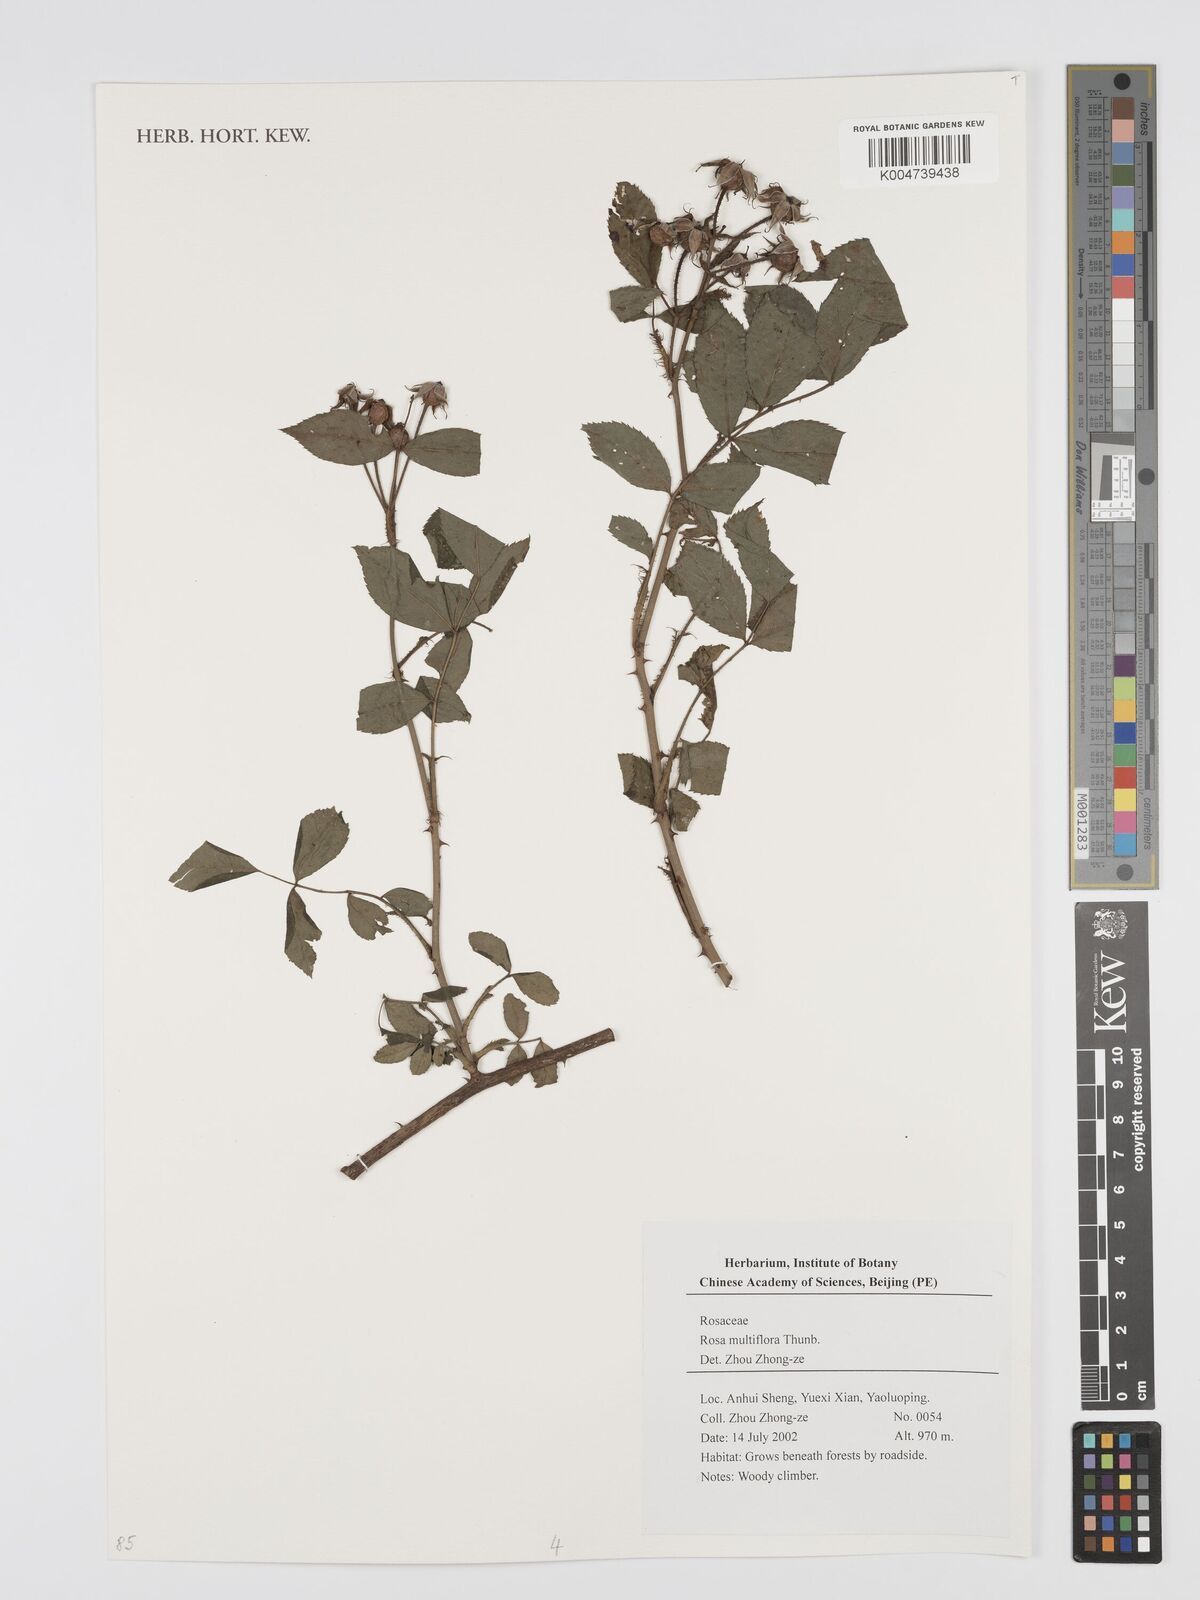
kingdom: Plantae
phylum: Tracheophyta
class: Magnoliopsida
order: Rosales
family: Rosaceae
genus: Rosa
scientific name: Rosa
